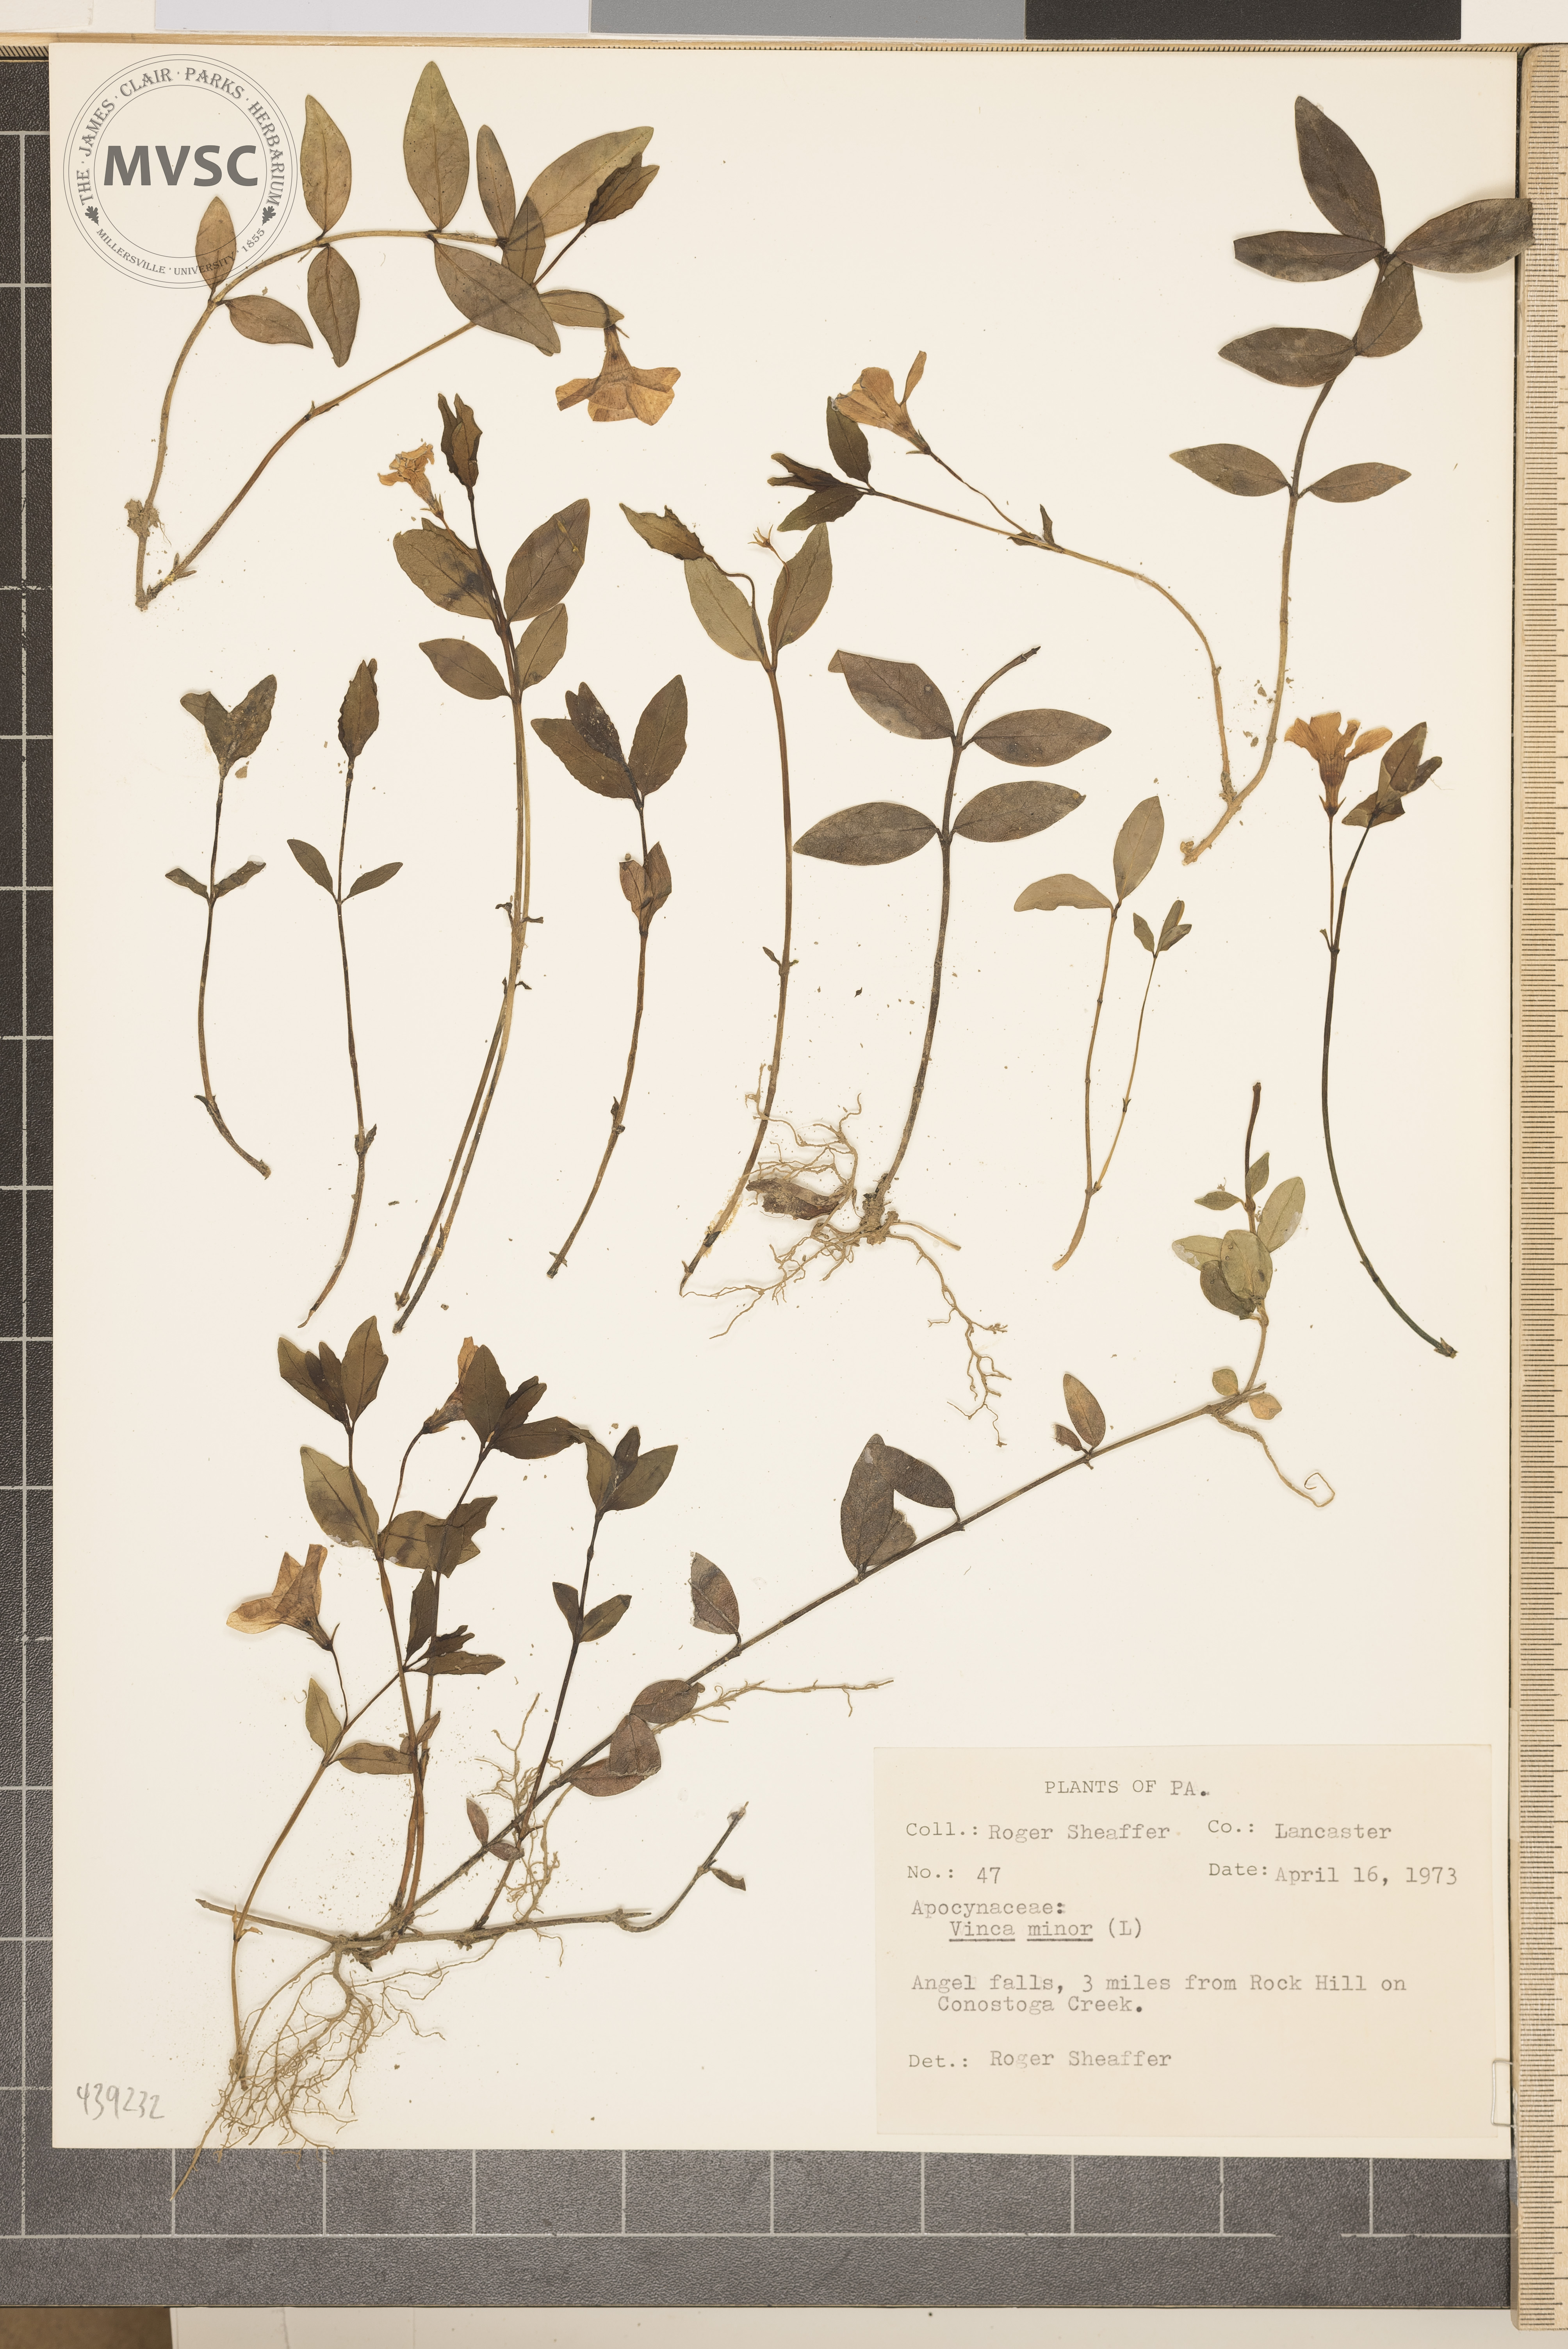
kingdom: Plantae
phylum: Tracheophyta
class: Magnoliopsida
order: Gentianales
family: Apocynaceae
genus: Vinca
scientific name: Vinca minor
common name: Periwinkle
